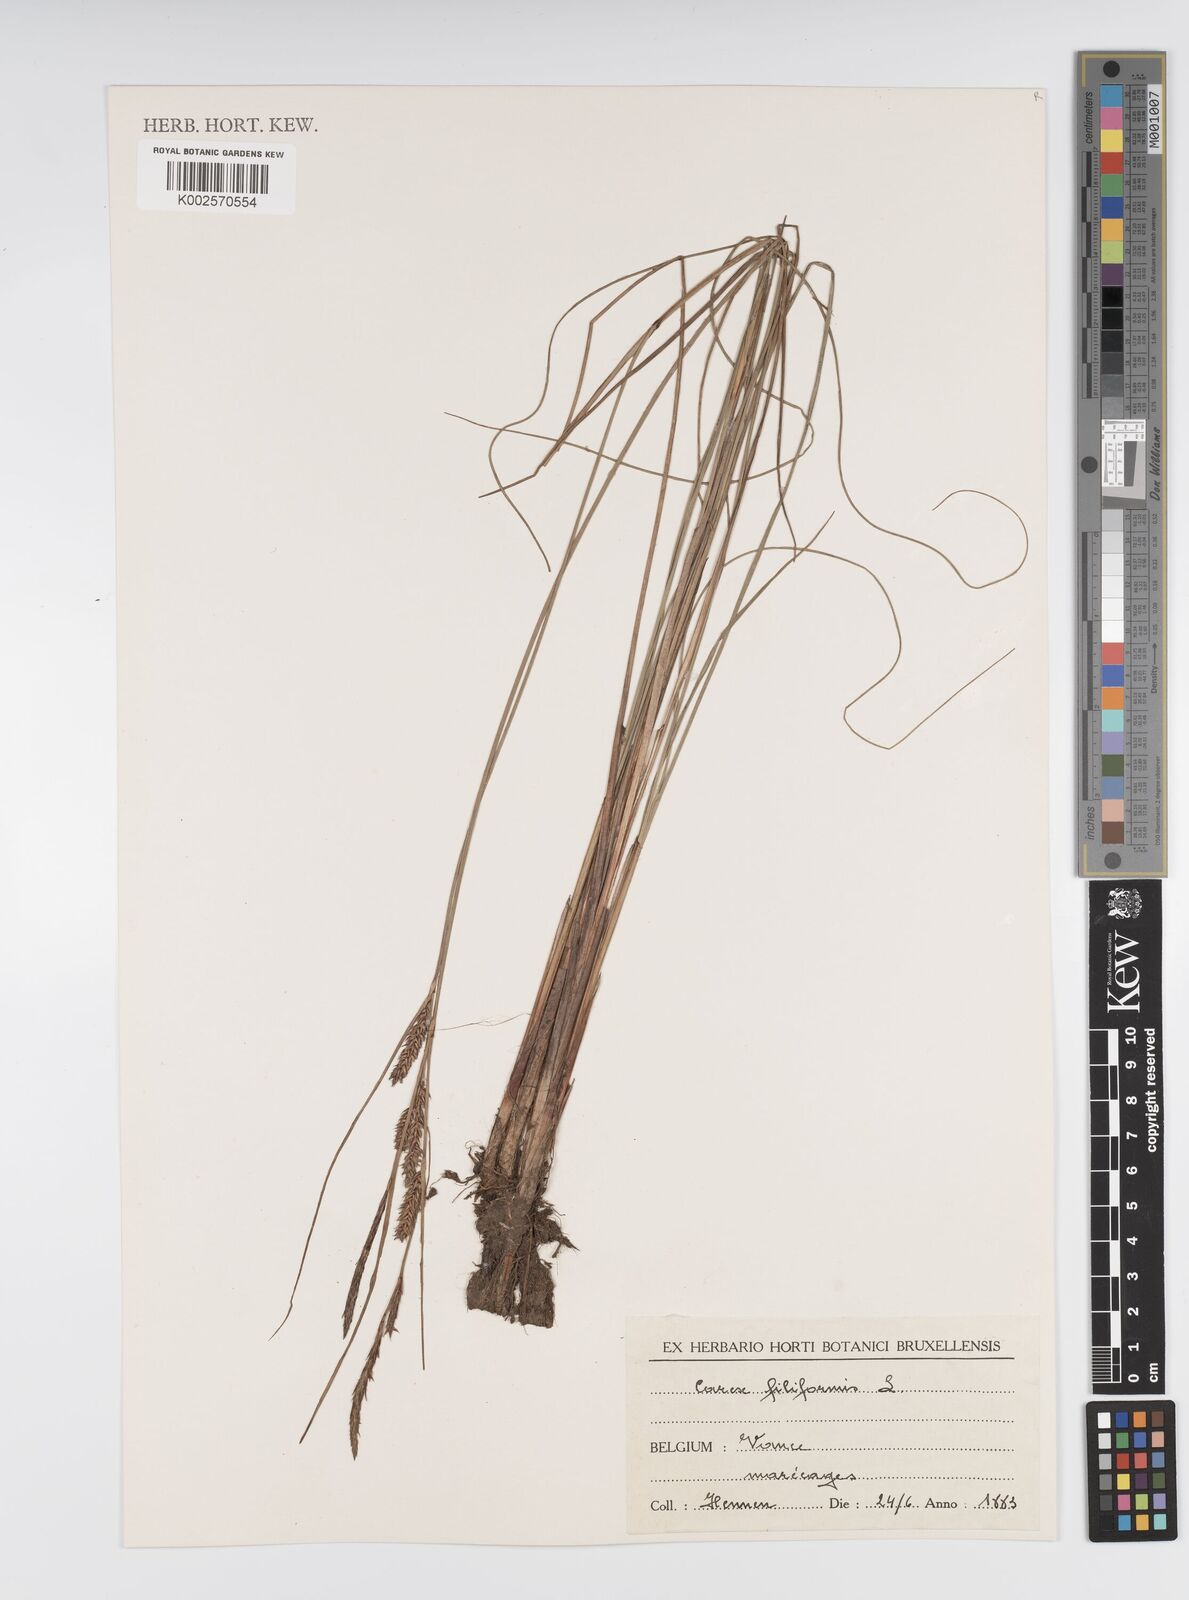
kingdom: Plantae
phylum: Tracheophyta
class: Liliopsida
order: Poales
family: Cyperaceae
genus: Carex
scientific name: Carex montana
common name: Soft-leaved sedge
